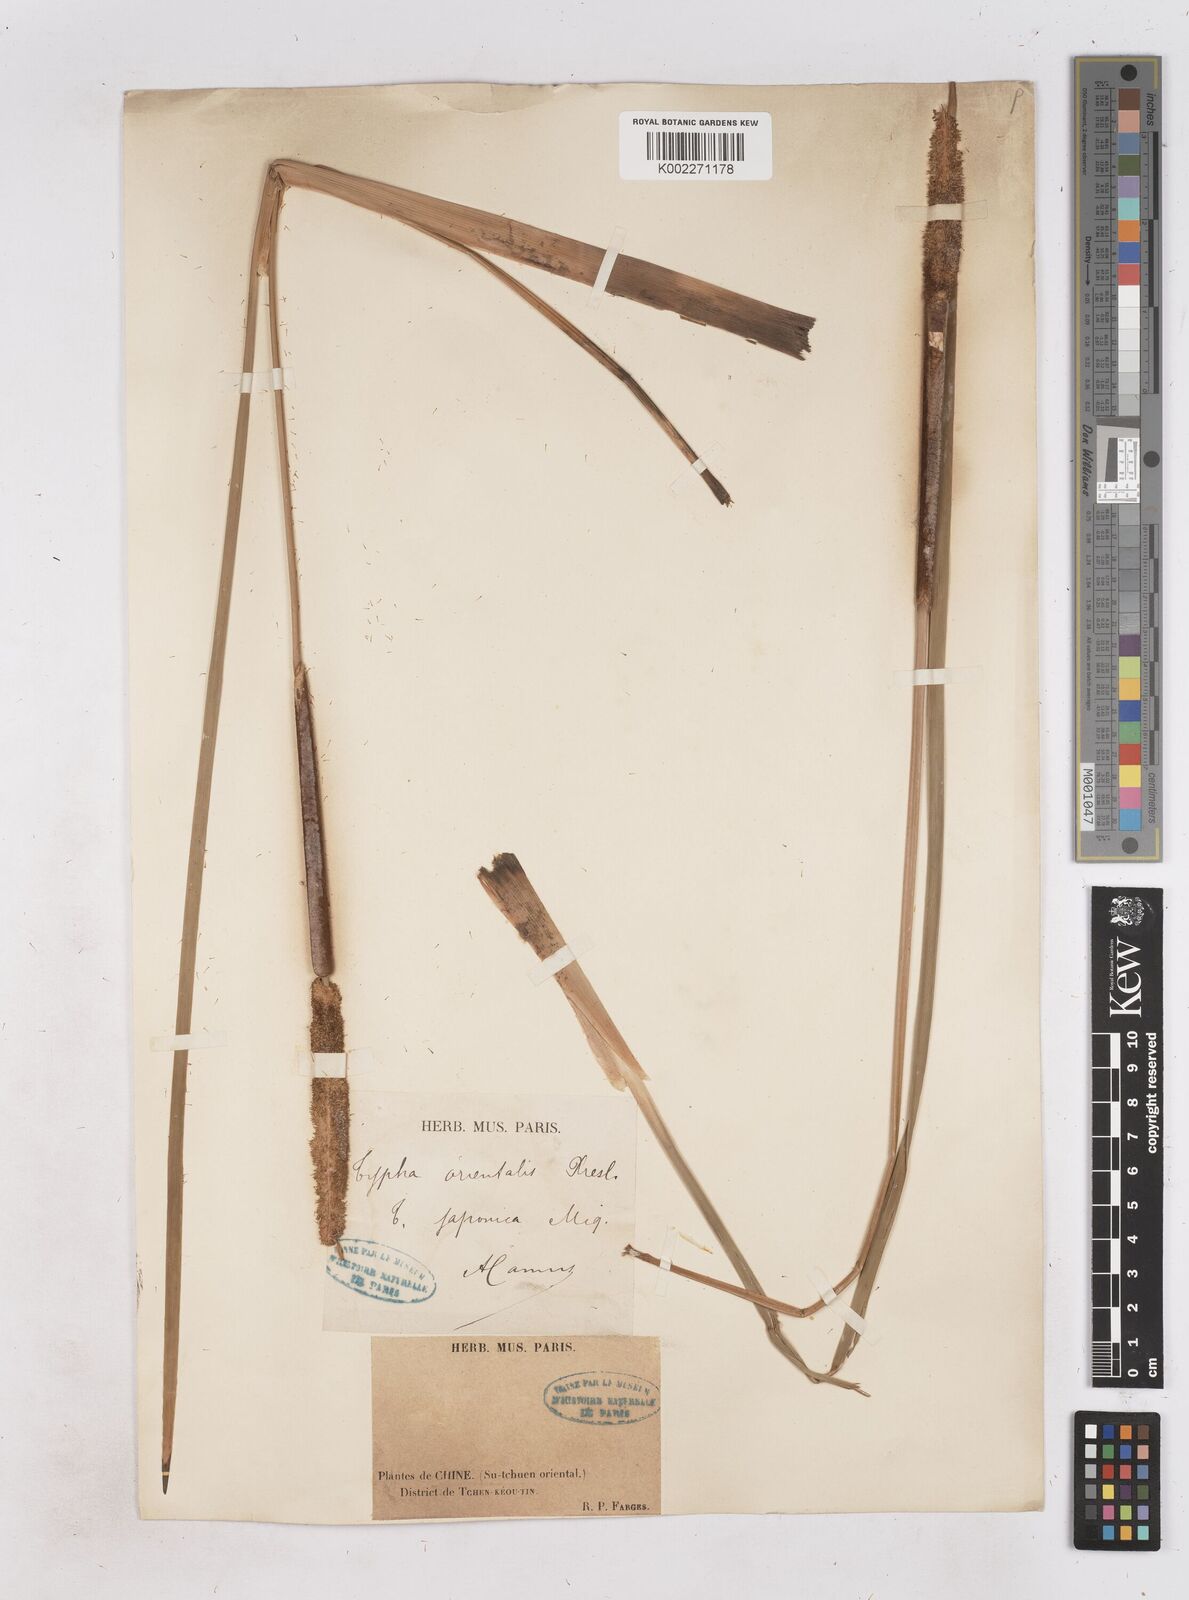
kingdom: Plantae
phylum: Tracheophyta
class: Liliopsida
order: Poales
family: Typhaceae
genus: Typha
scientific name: Typha shuttleworthii
